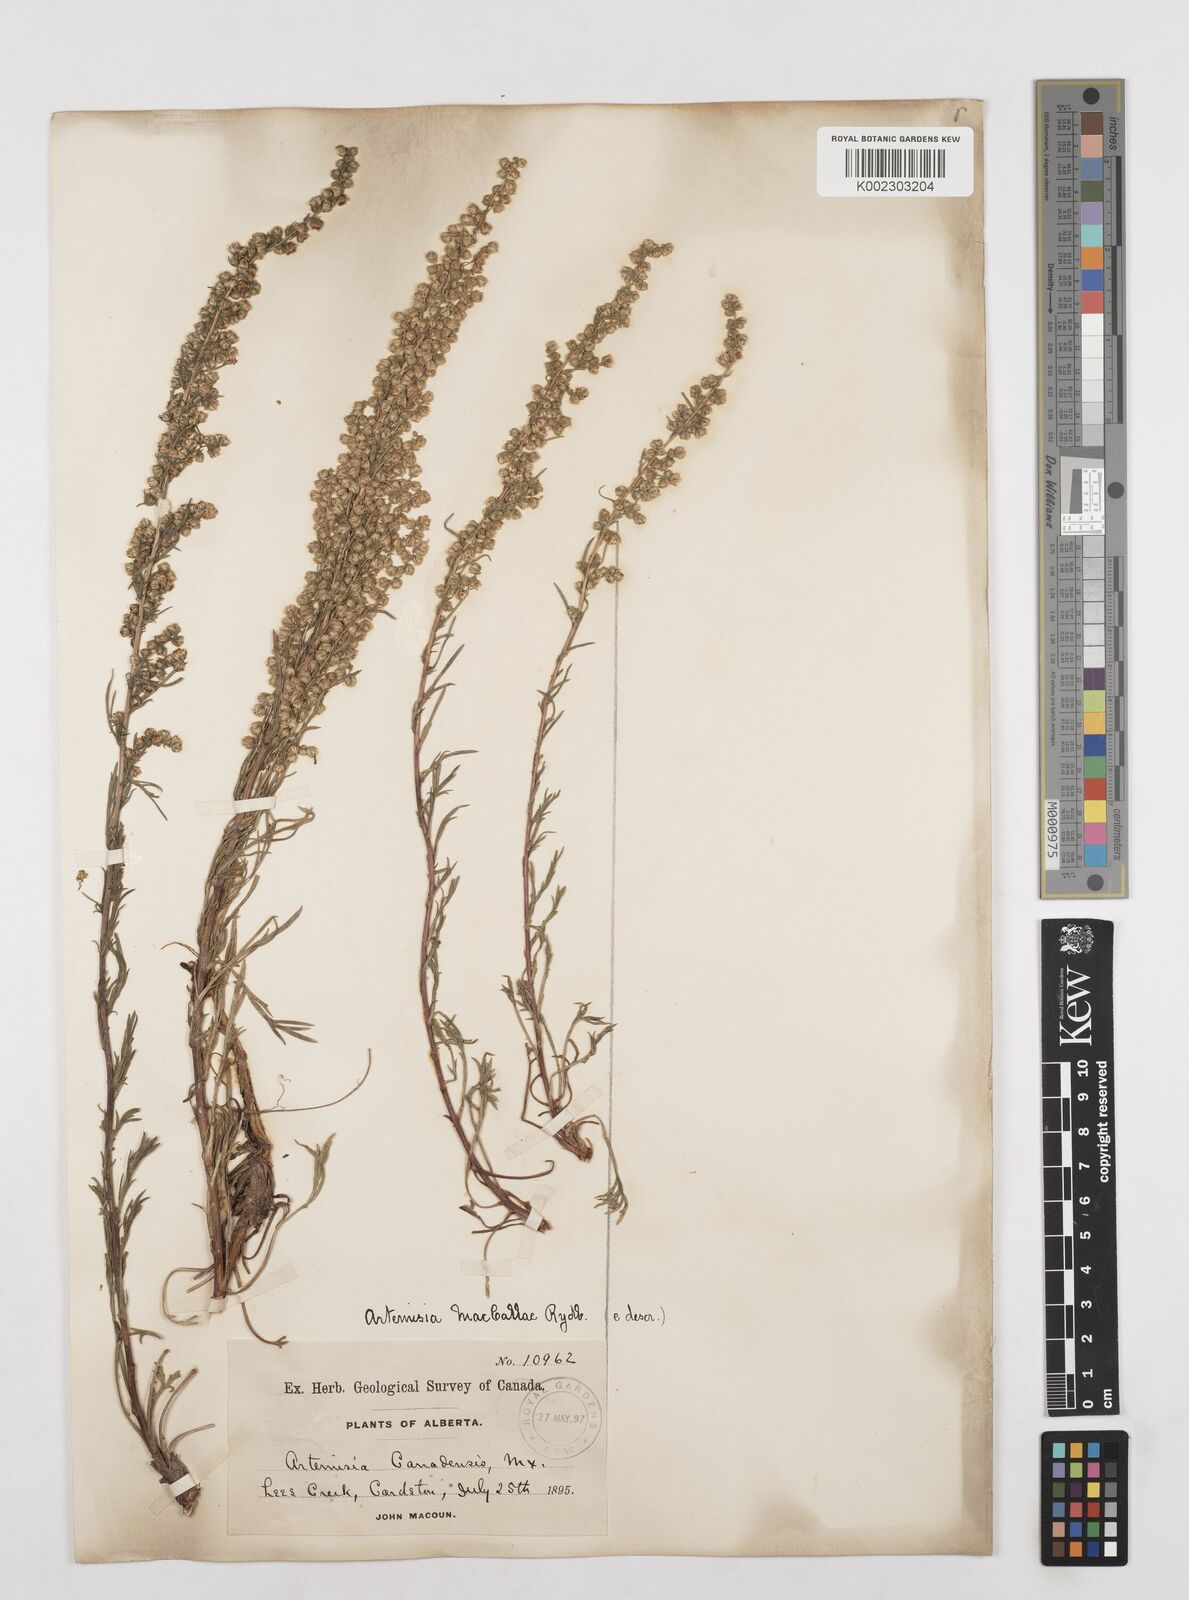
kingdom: Plantae
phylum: Tracheophyta
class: Magnoliopsida
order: Asterales
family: Asteraceae
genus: Artemisia
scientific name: Artemisia campestris
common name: Field wormwood
